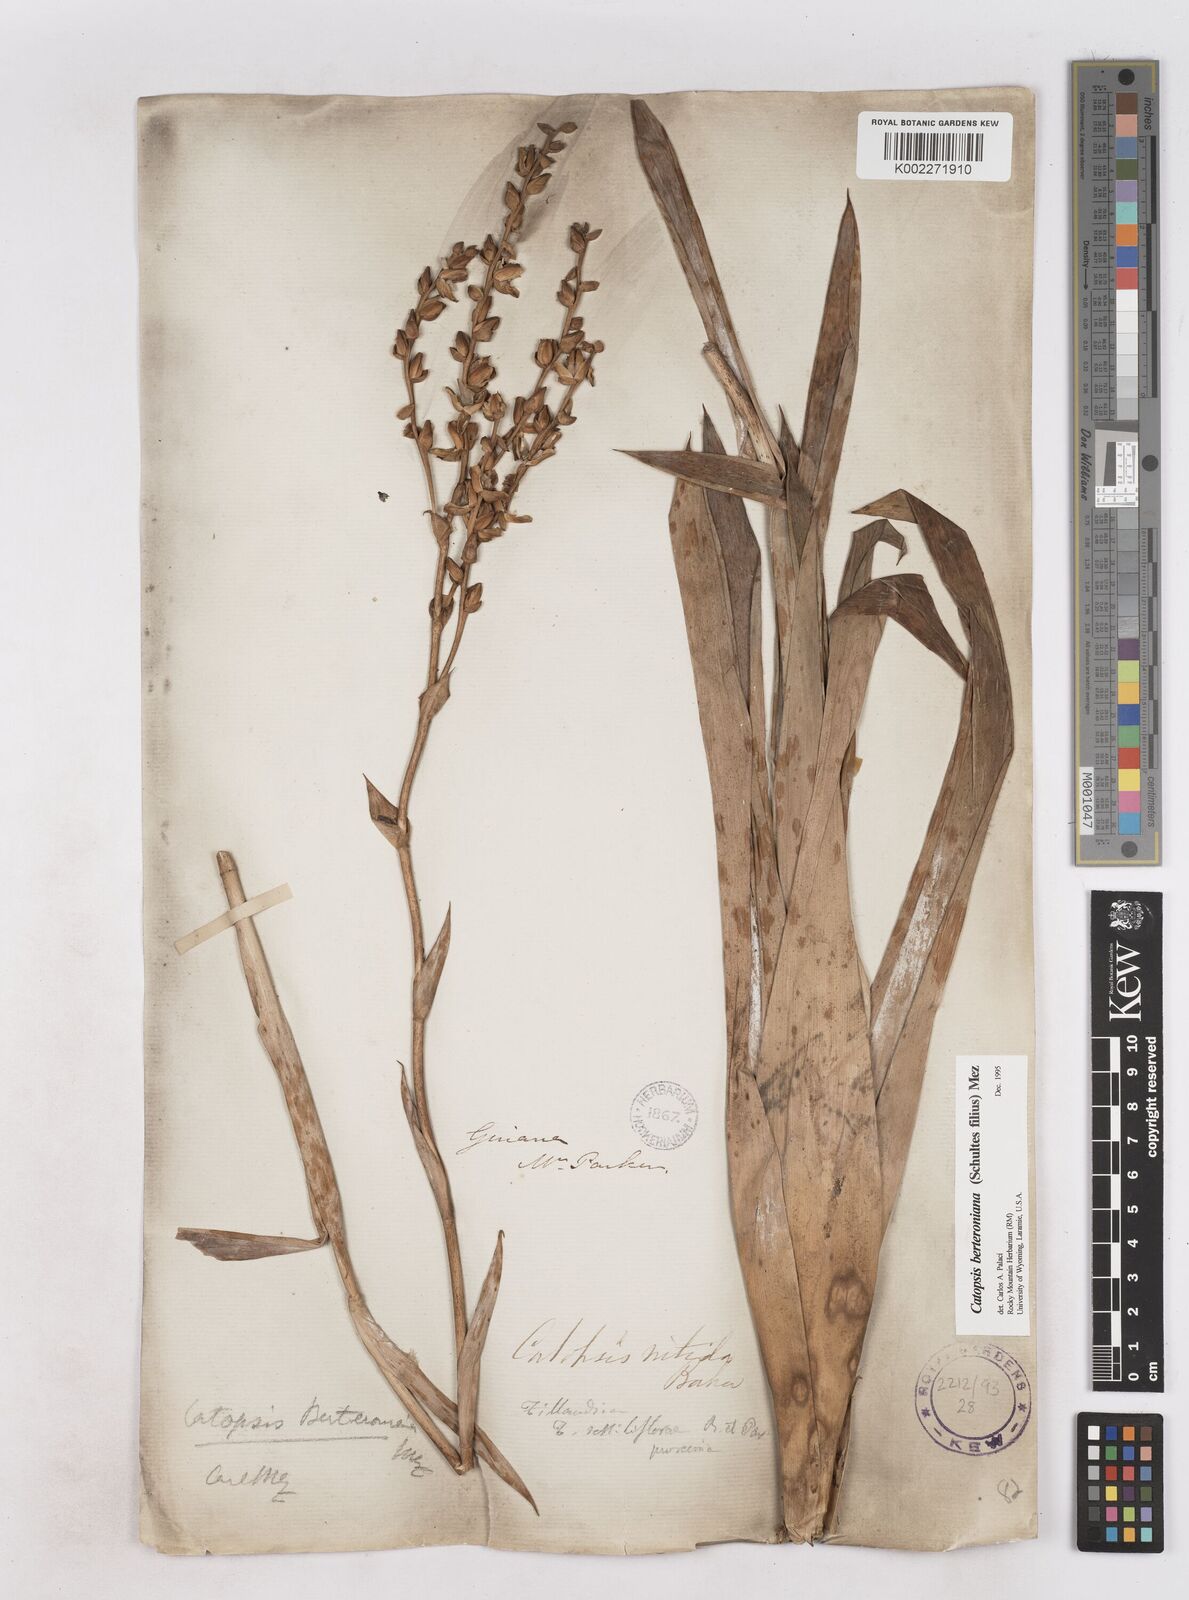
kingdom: Plantae
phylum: Tracheophyta
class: Liliopsida
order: Poales
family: Bromeliaceae
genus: Catopsis
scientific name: Catopsis berteroniana
